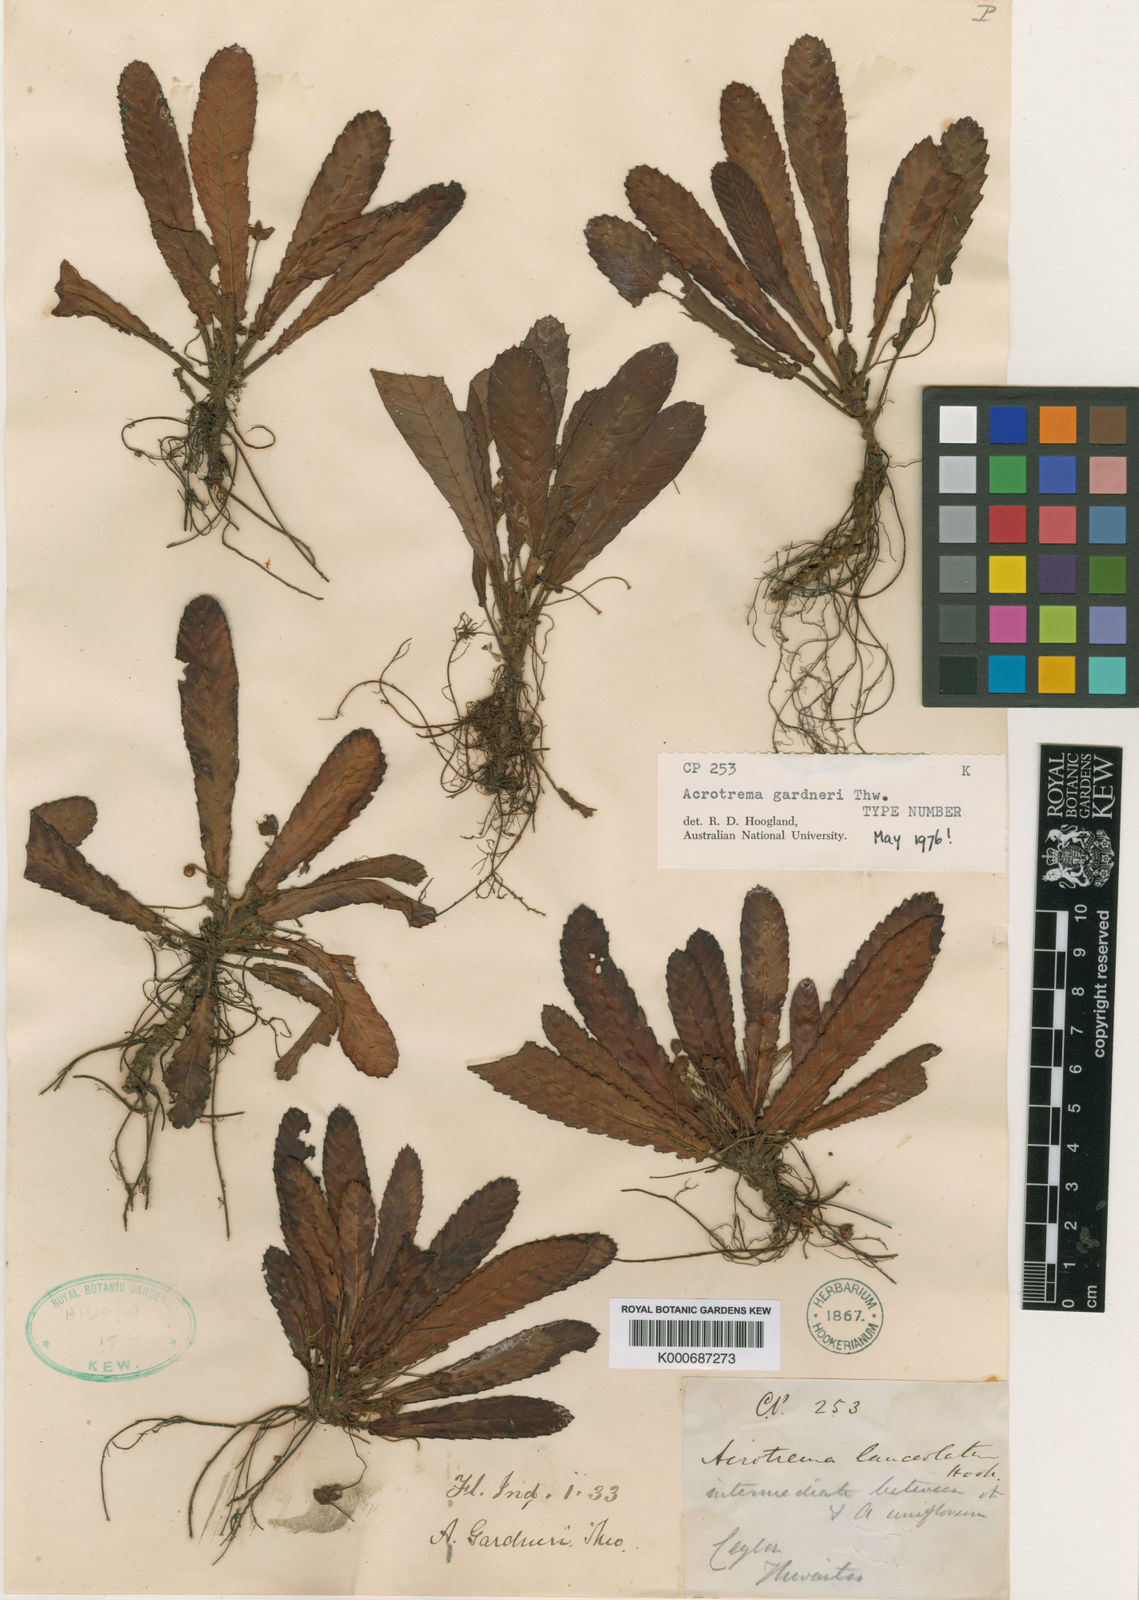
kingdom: Plantae
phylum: Tracheophyta
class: Magnoliopsida
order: Dilleniales
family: Dilleniaceae
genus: Acrotrema
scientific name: Acrotrema lanceolatum
